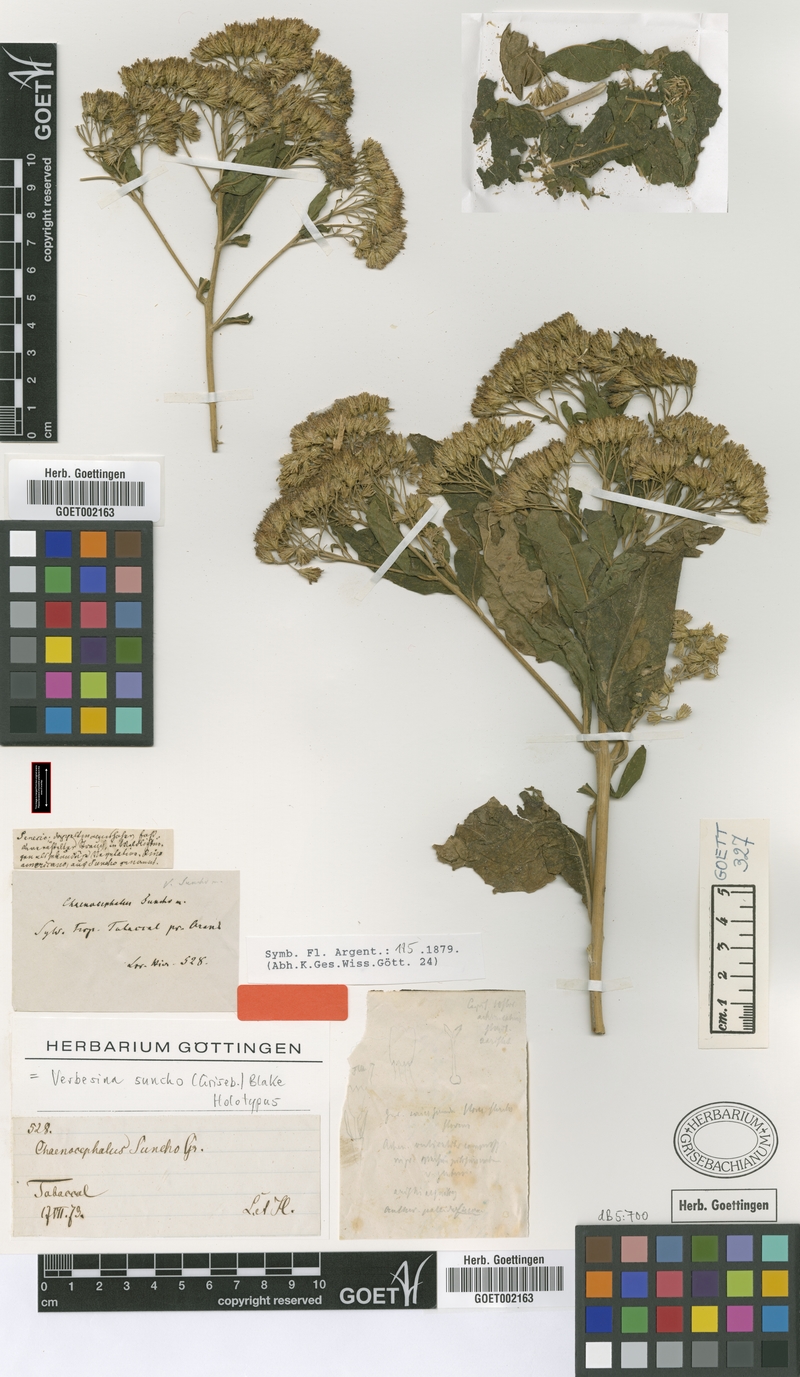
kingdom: Plantae
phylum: Tracheophyta
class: Magnoliopsida
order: Asterales
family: Asteraceae
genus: Verbesina
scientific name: Verbesina suncho
